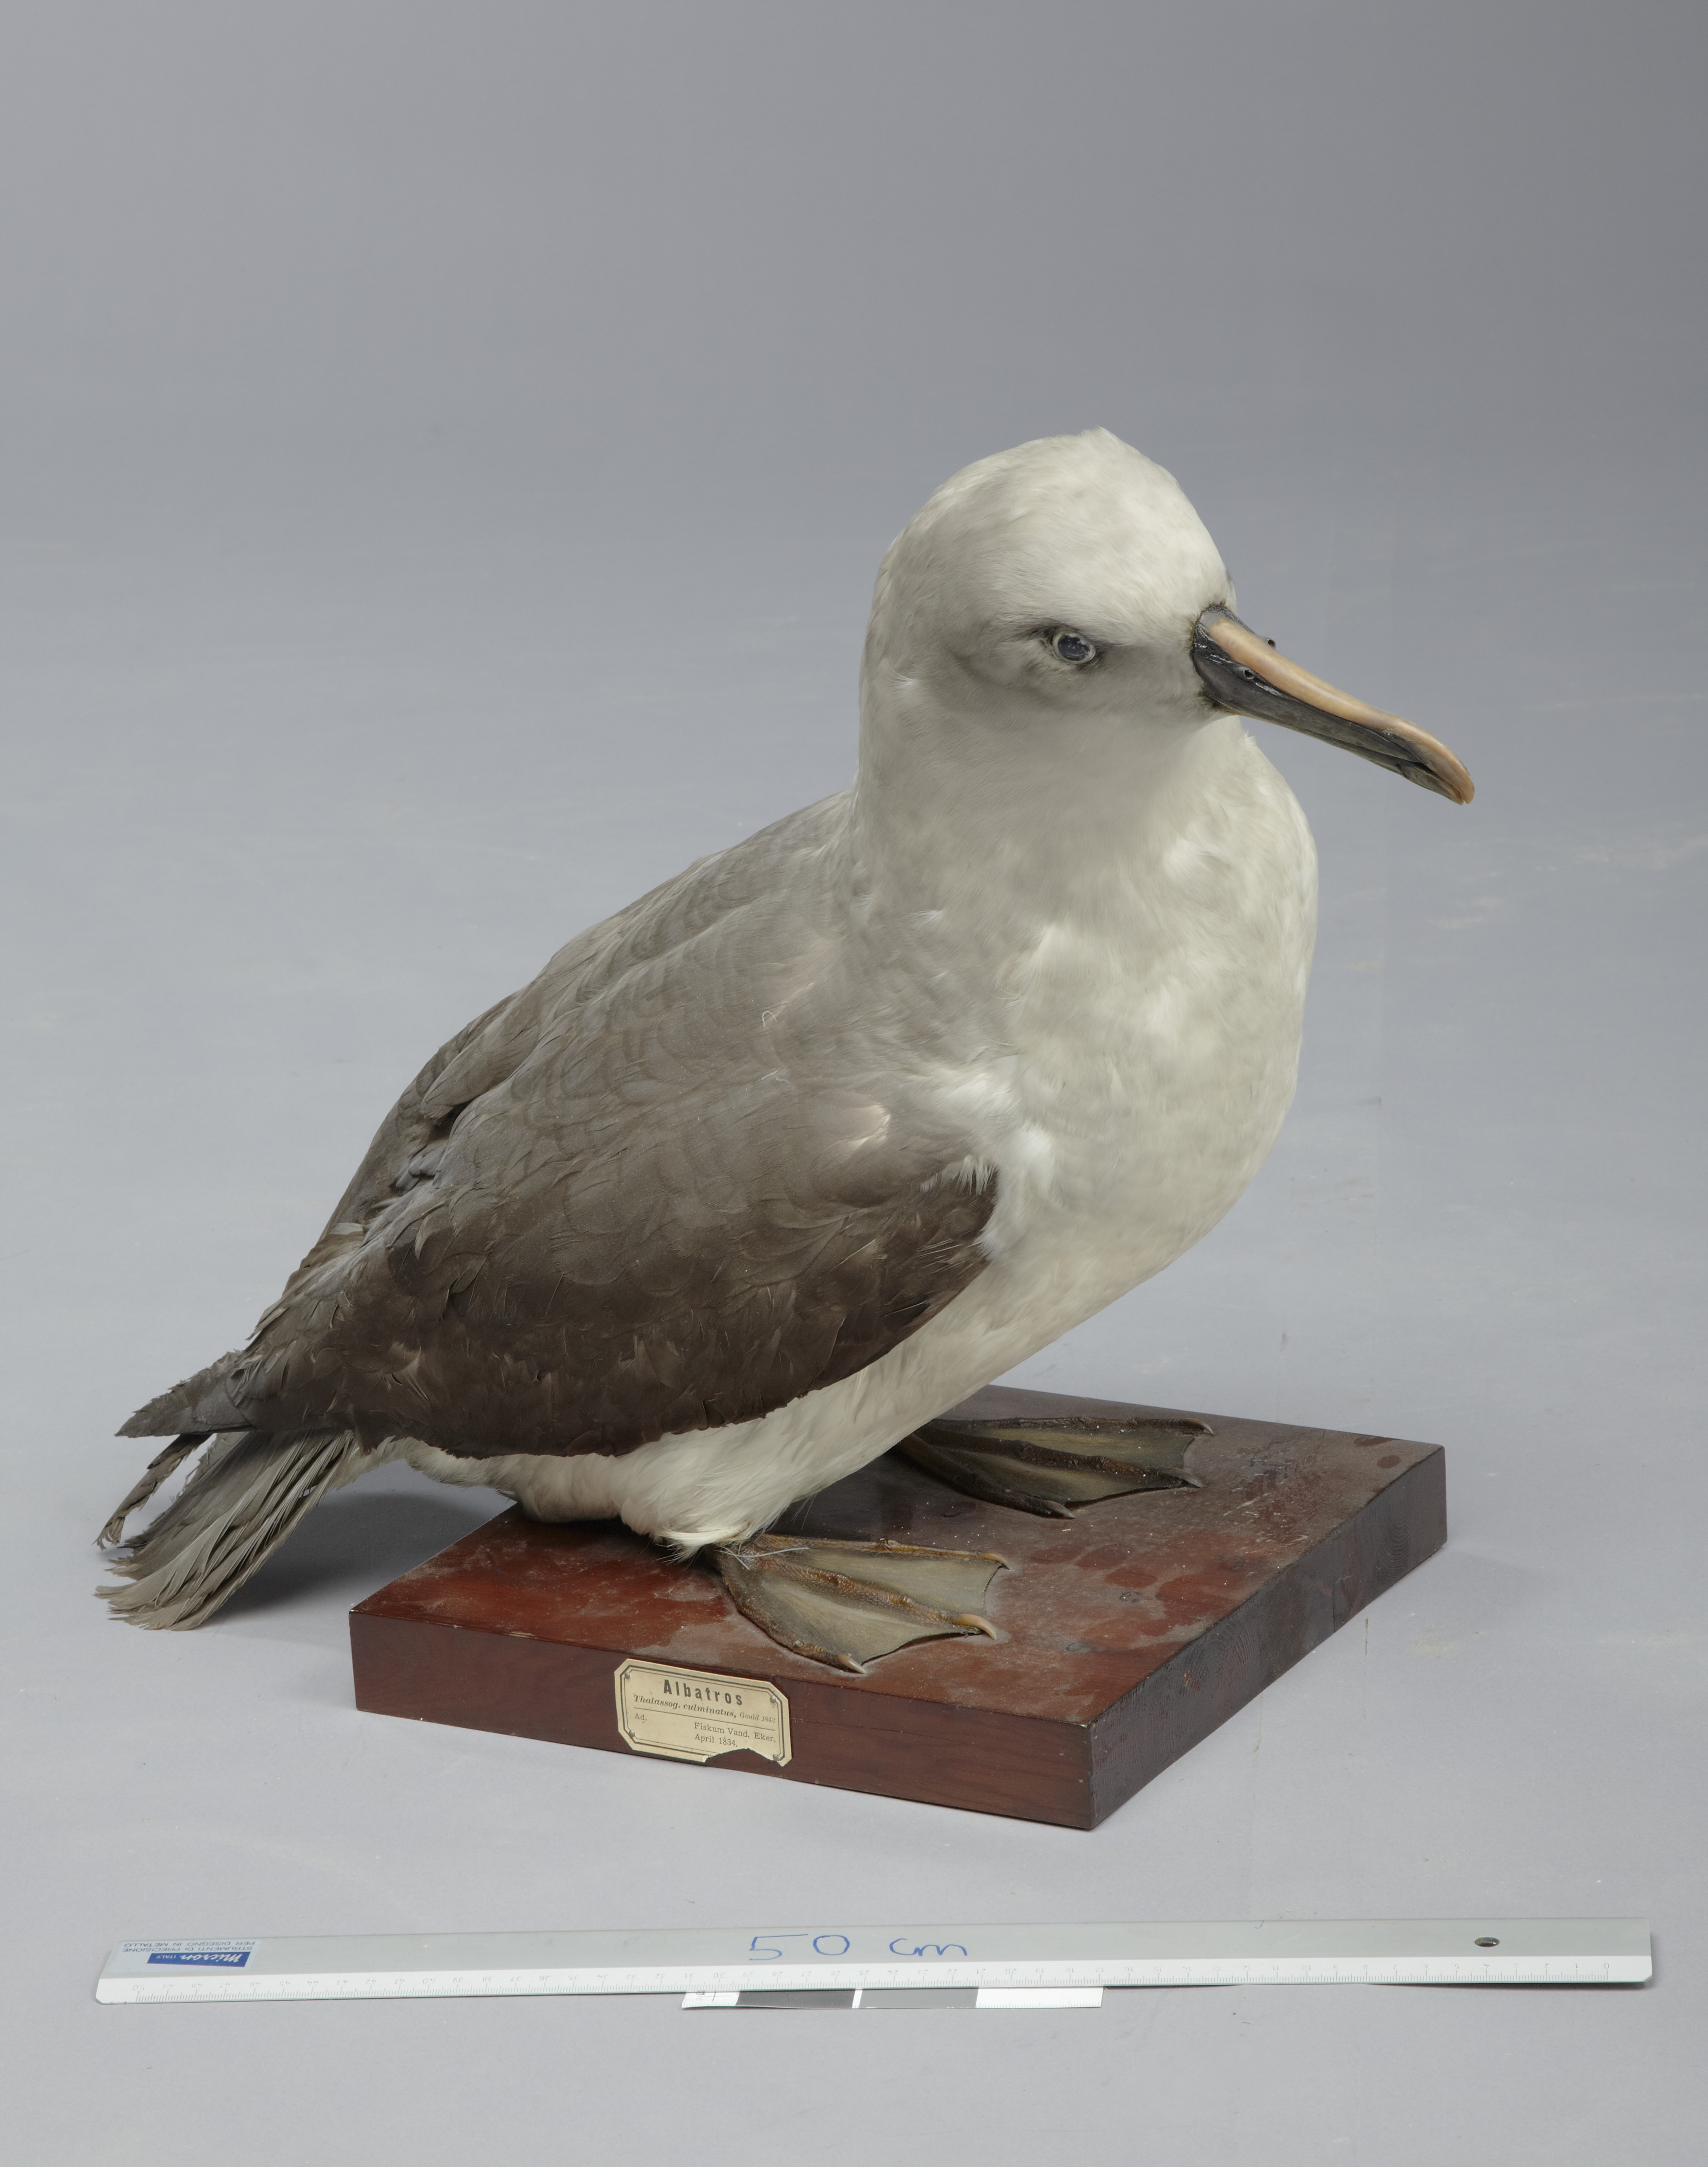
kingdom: Animalia
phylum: Chordata
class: Aves
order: Procellariiformes
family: Diomedeidae
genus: Thalassarche
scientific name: Thalassarche chrysostoma
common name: Grey-headed albatross
